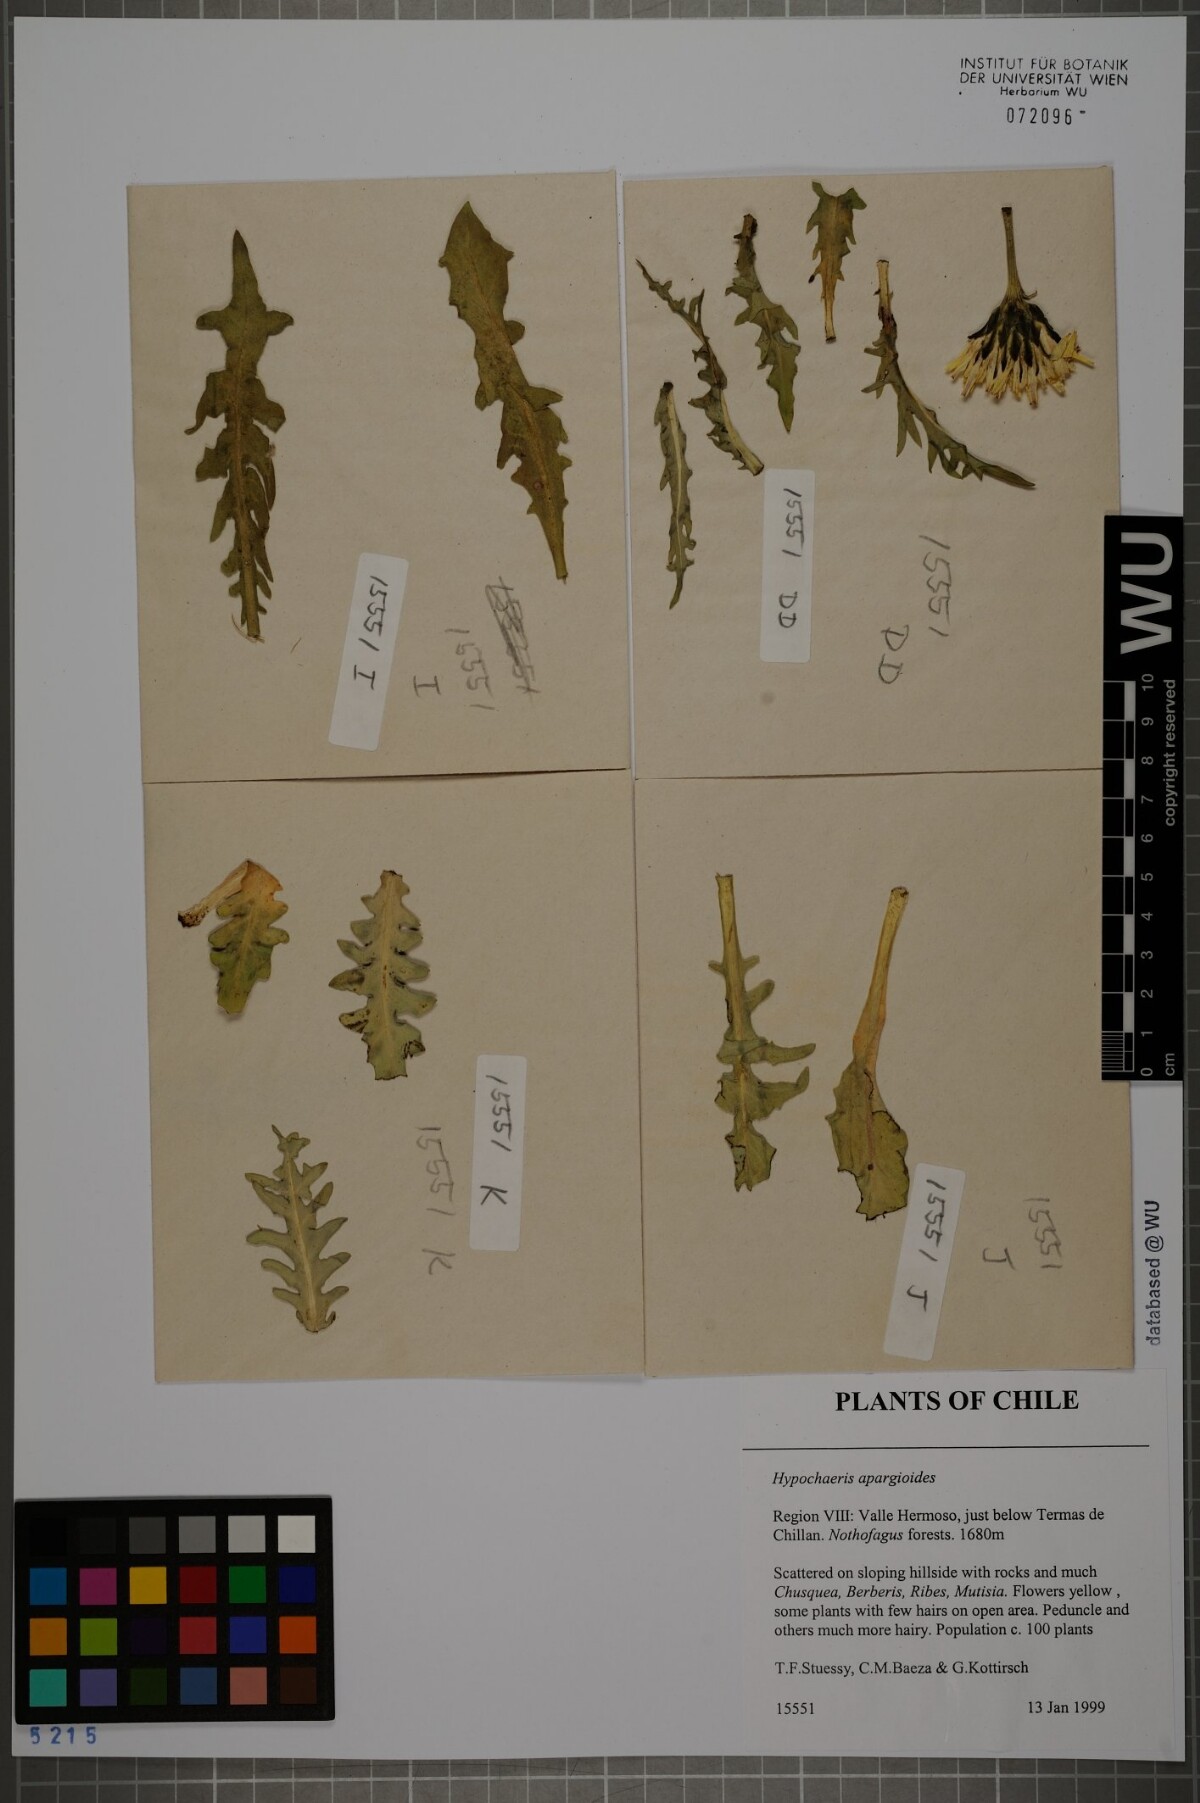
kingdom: Plantae
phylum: Tracheophyta
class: Magnoliopsida
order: Asterales
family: Asteraceae
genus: Hypochaeris
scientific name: Hypochaeris apargioides
